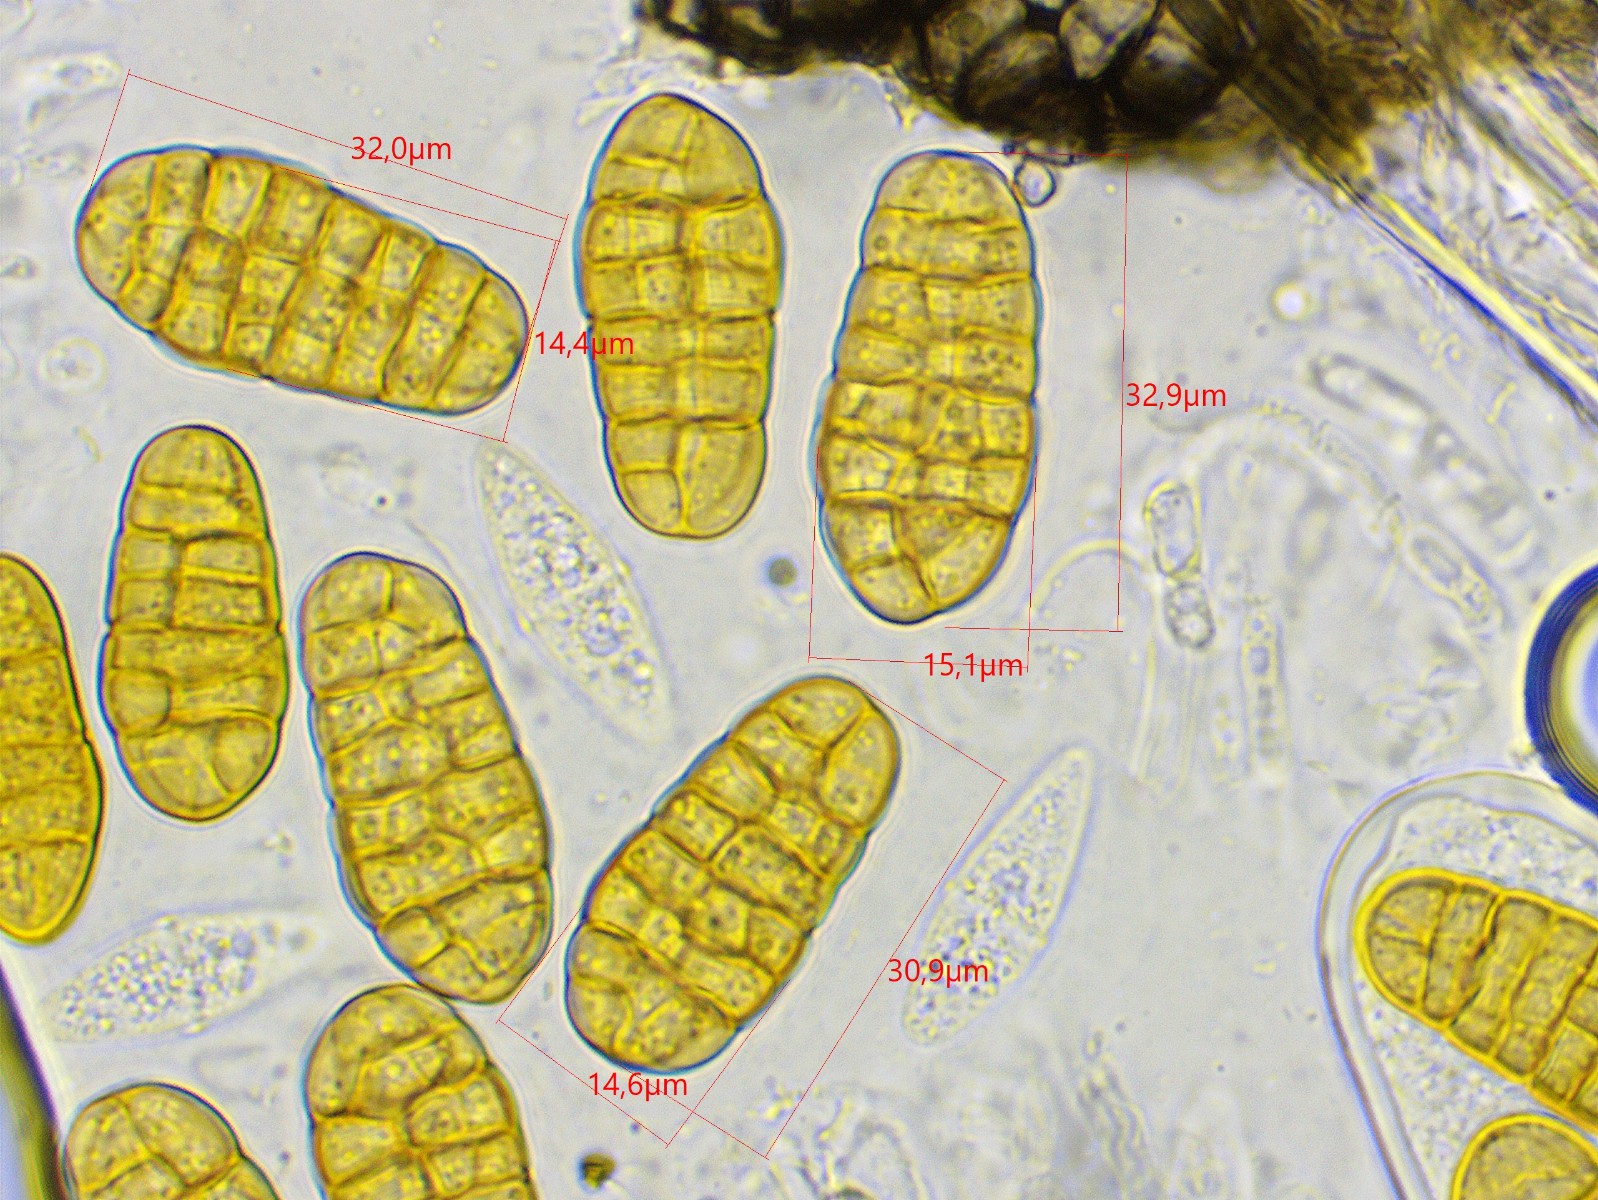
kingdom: Fungi
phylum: Ascomycota
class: Dothideomycetes
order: Pleosporales
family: Pleosporaceae
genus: Stemphylium
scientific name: Stemphylium vesicarium
